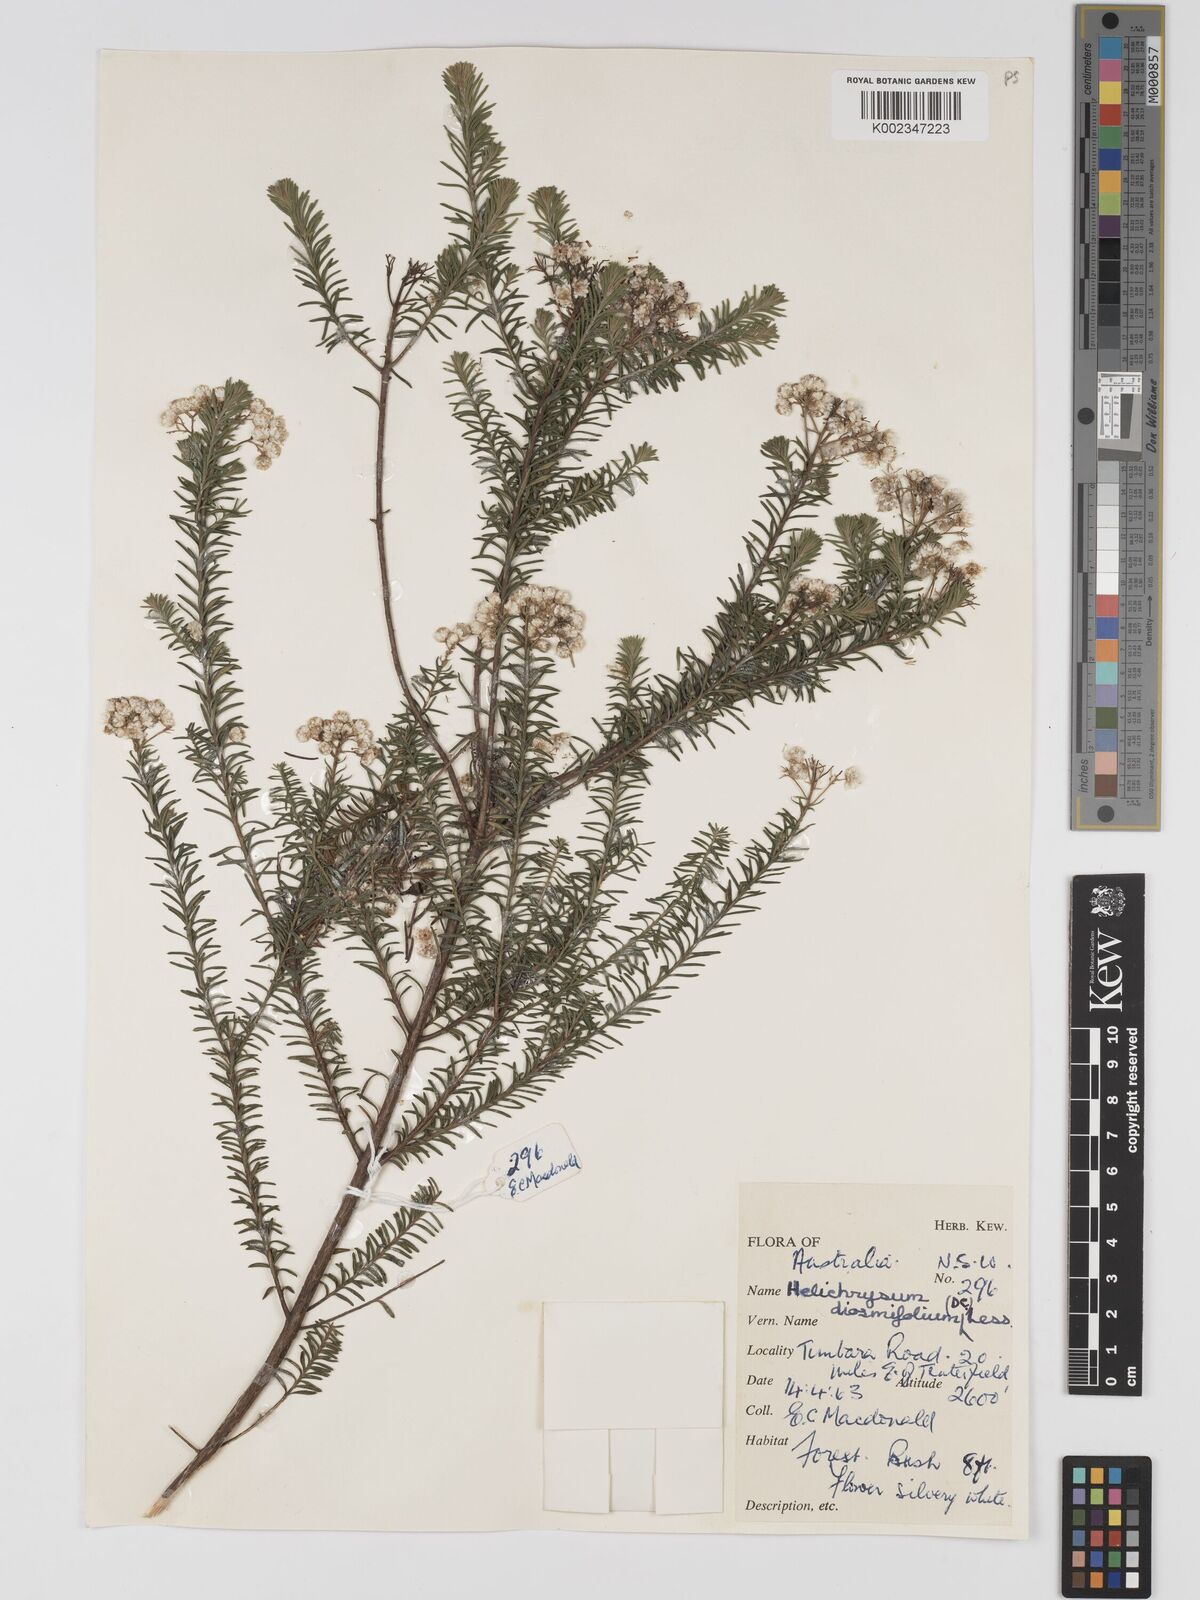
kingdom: Plantae
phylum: Tracheophyta
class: Magnoliopsida
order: Asterales
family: Asteraceae
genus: Ozothamnus
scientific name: Ozothamnus diosmifolius
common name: White-dogwood
